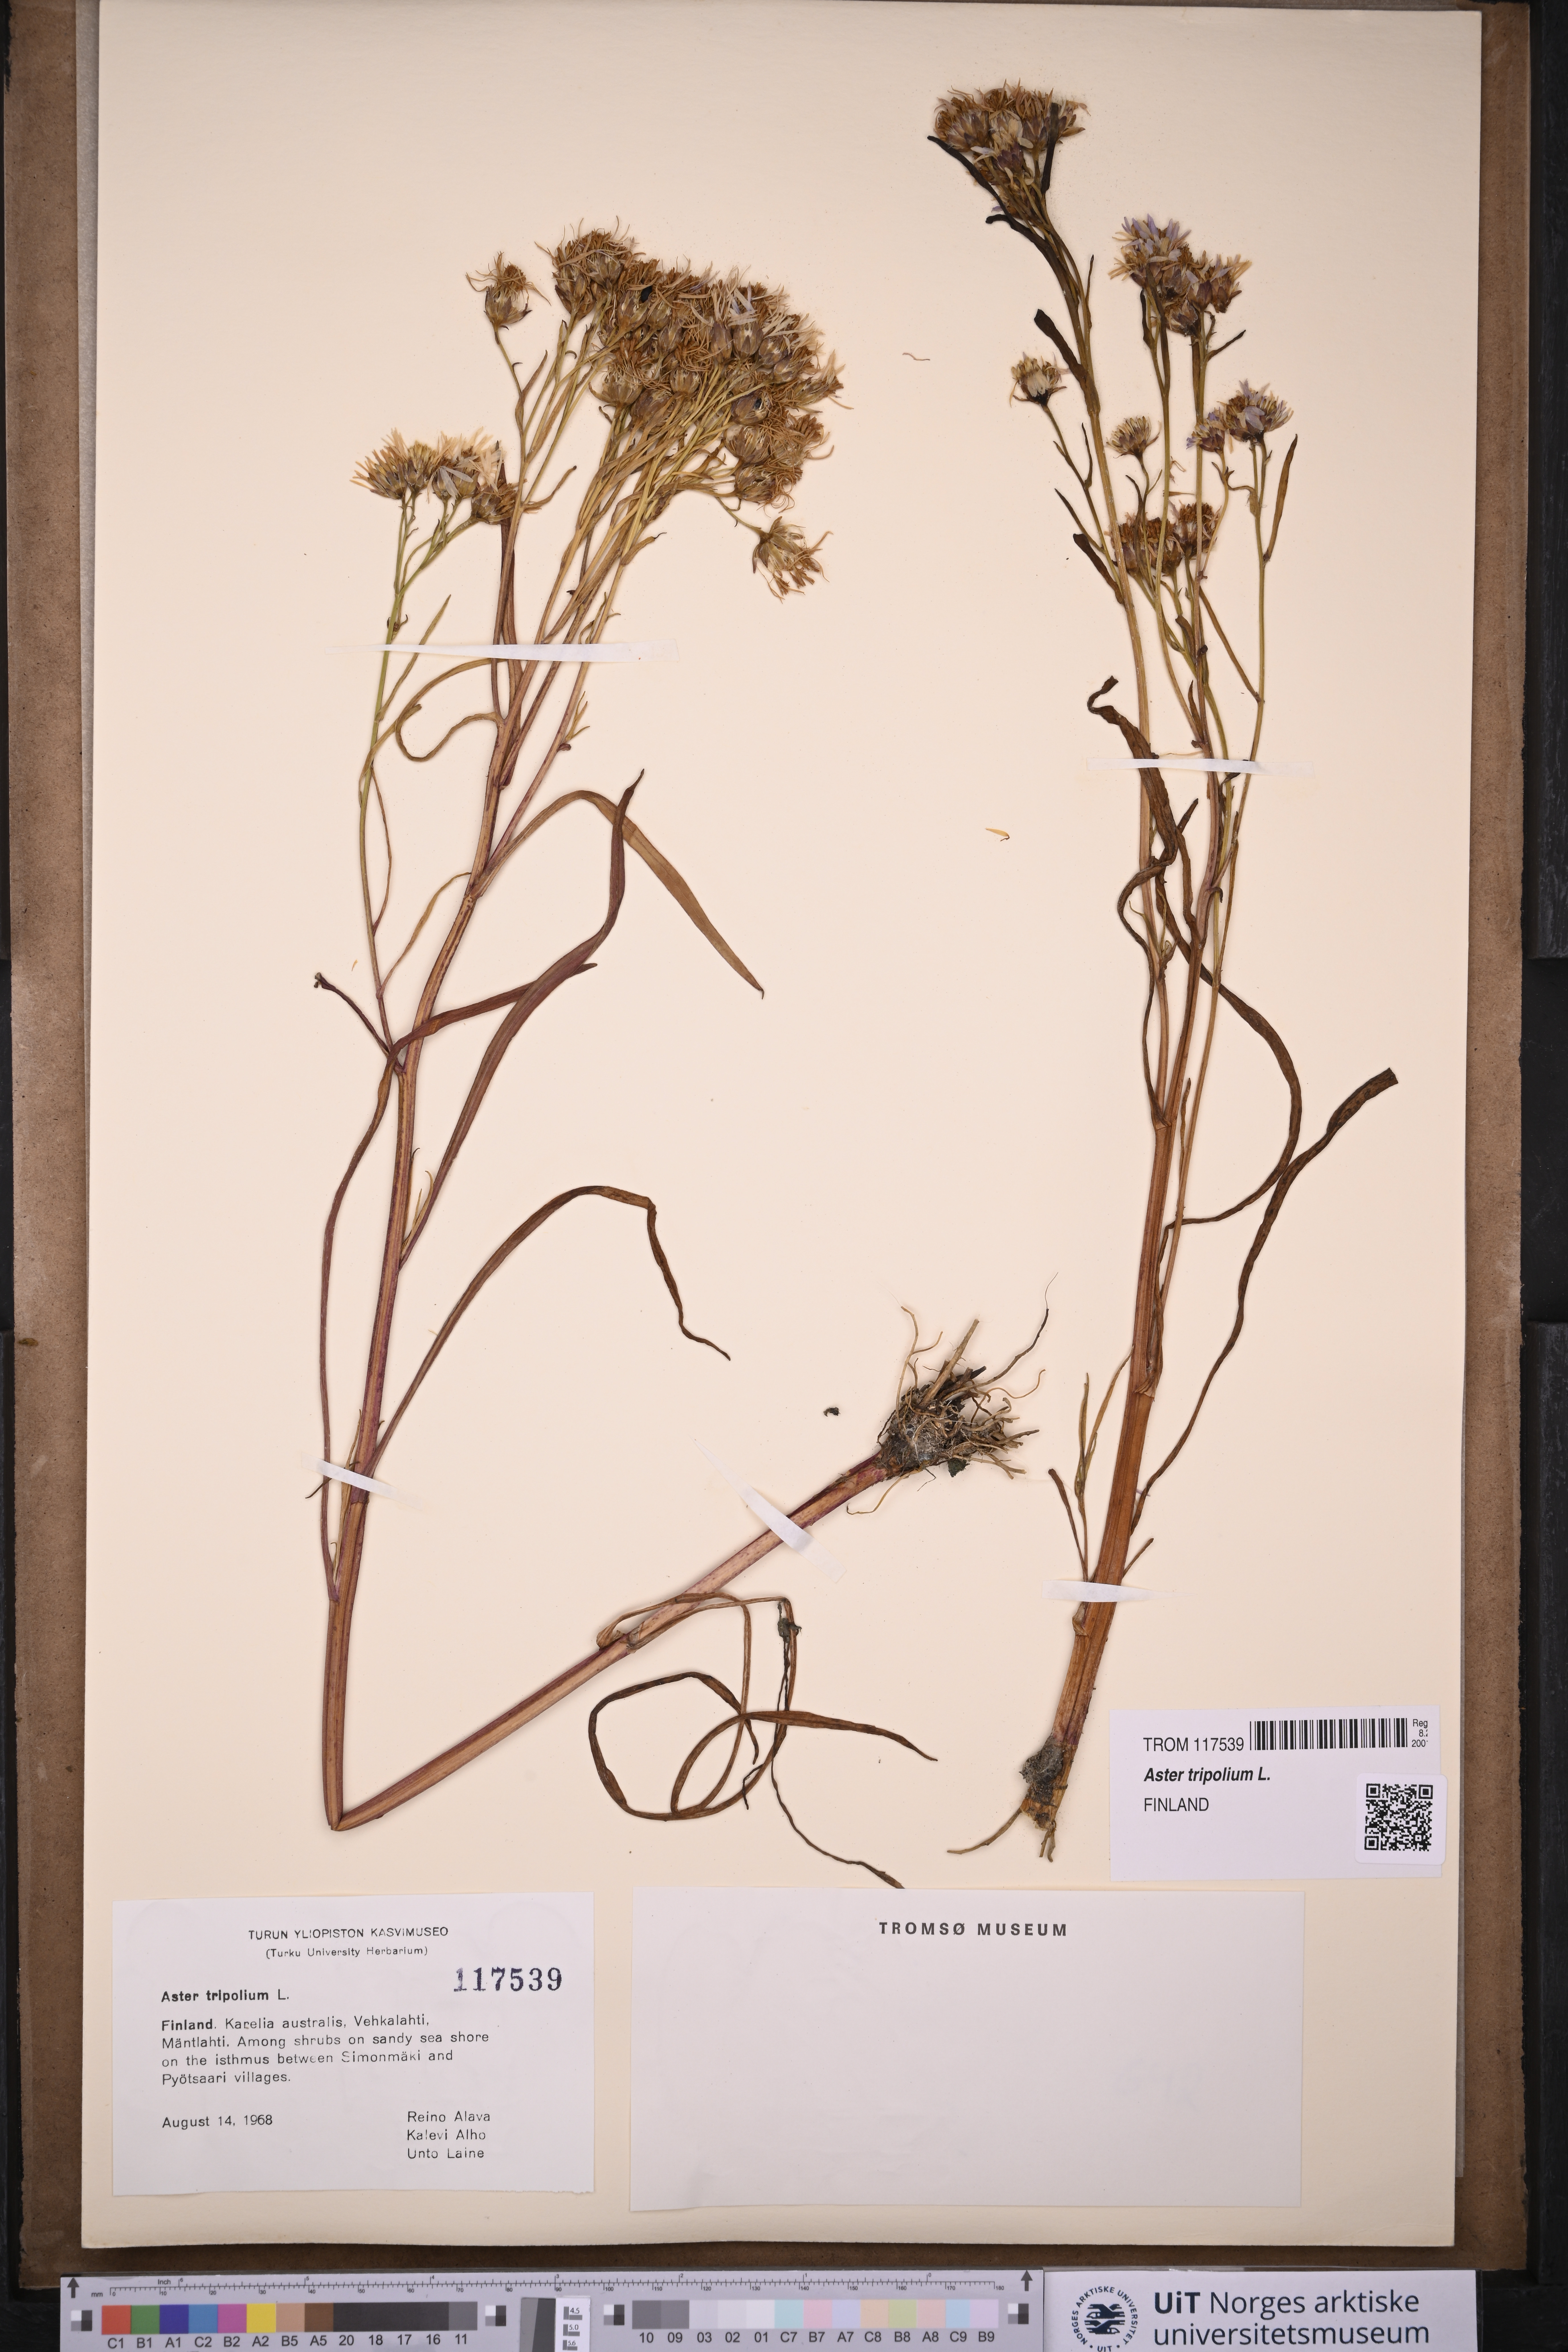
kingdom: Plantae
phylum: Tracheophyta
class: Magnoliopsida
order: Asterales
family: Asteraceae
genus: Tripolium
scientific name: Tripolium pannonicum
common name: Sea aster
